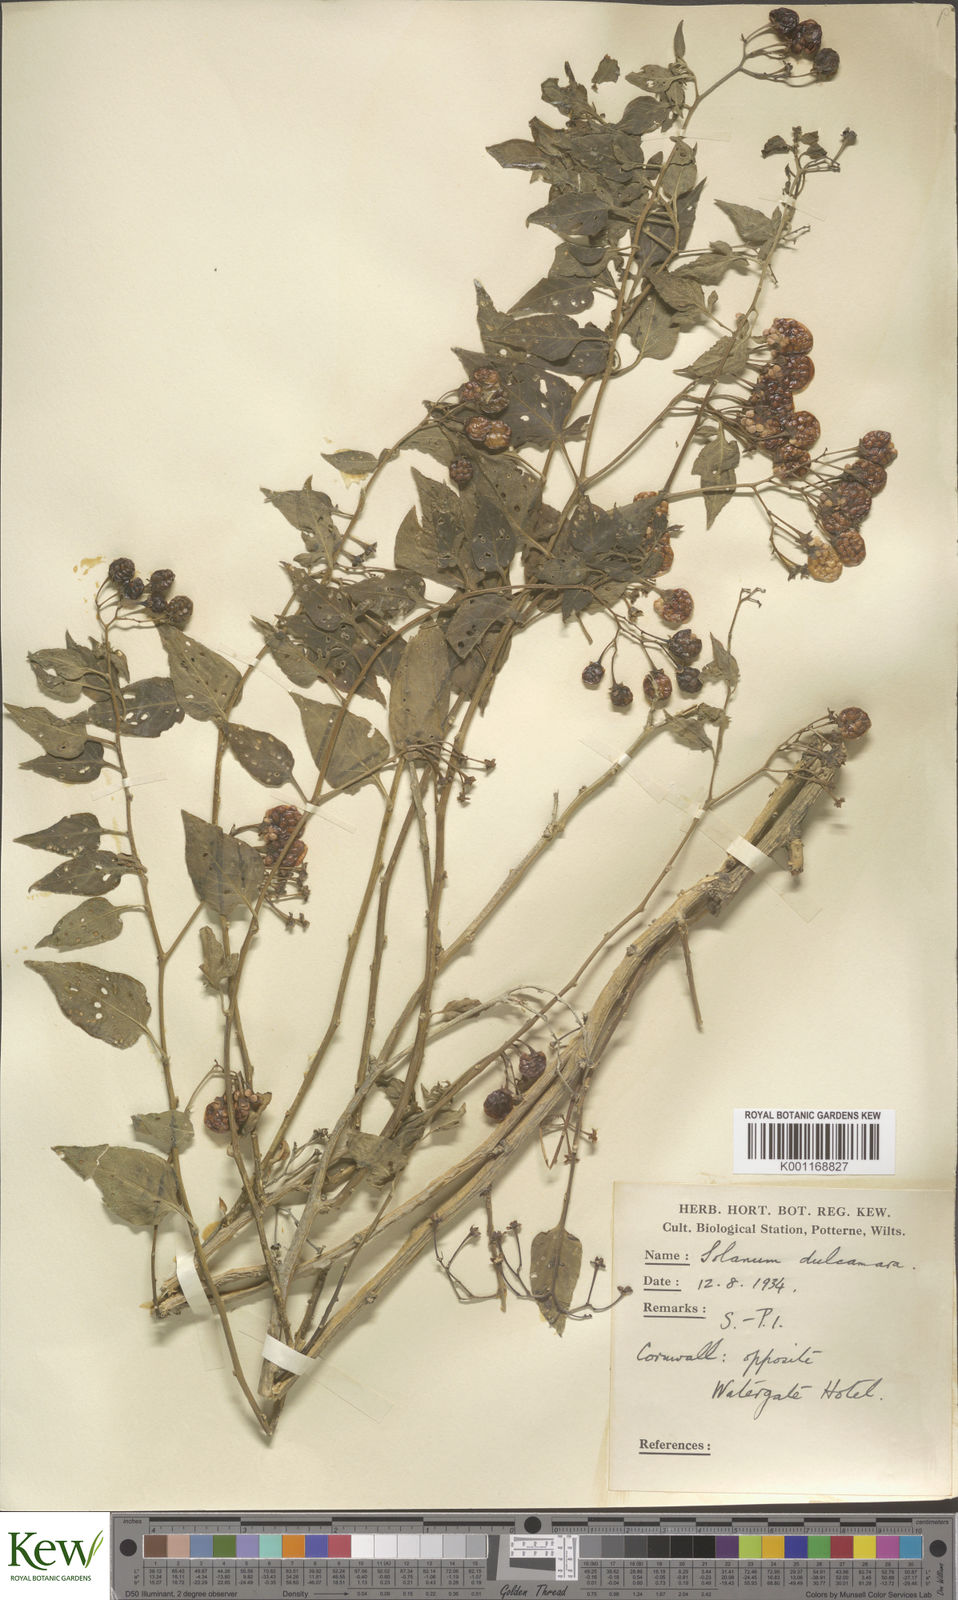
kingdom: Plantae
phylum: Tracheophyta
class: Magnoliopsida
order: Solanales
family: Solanaceae
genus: Solanum
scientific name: Solanum dulcamara
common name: Climbing nightshade
